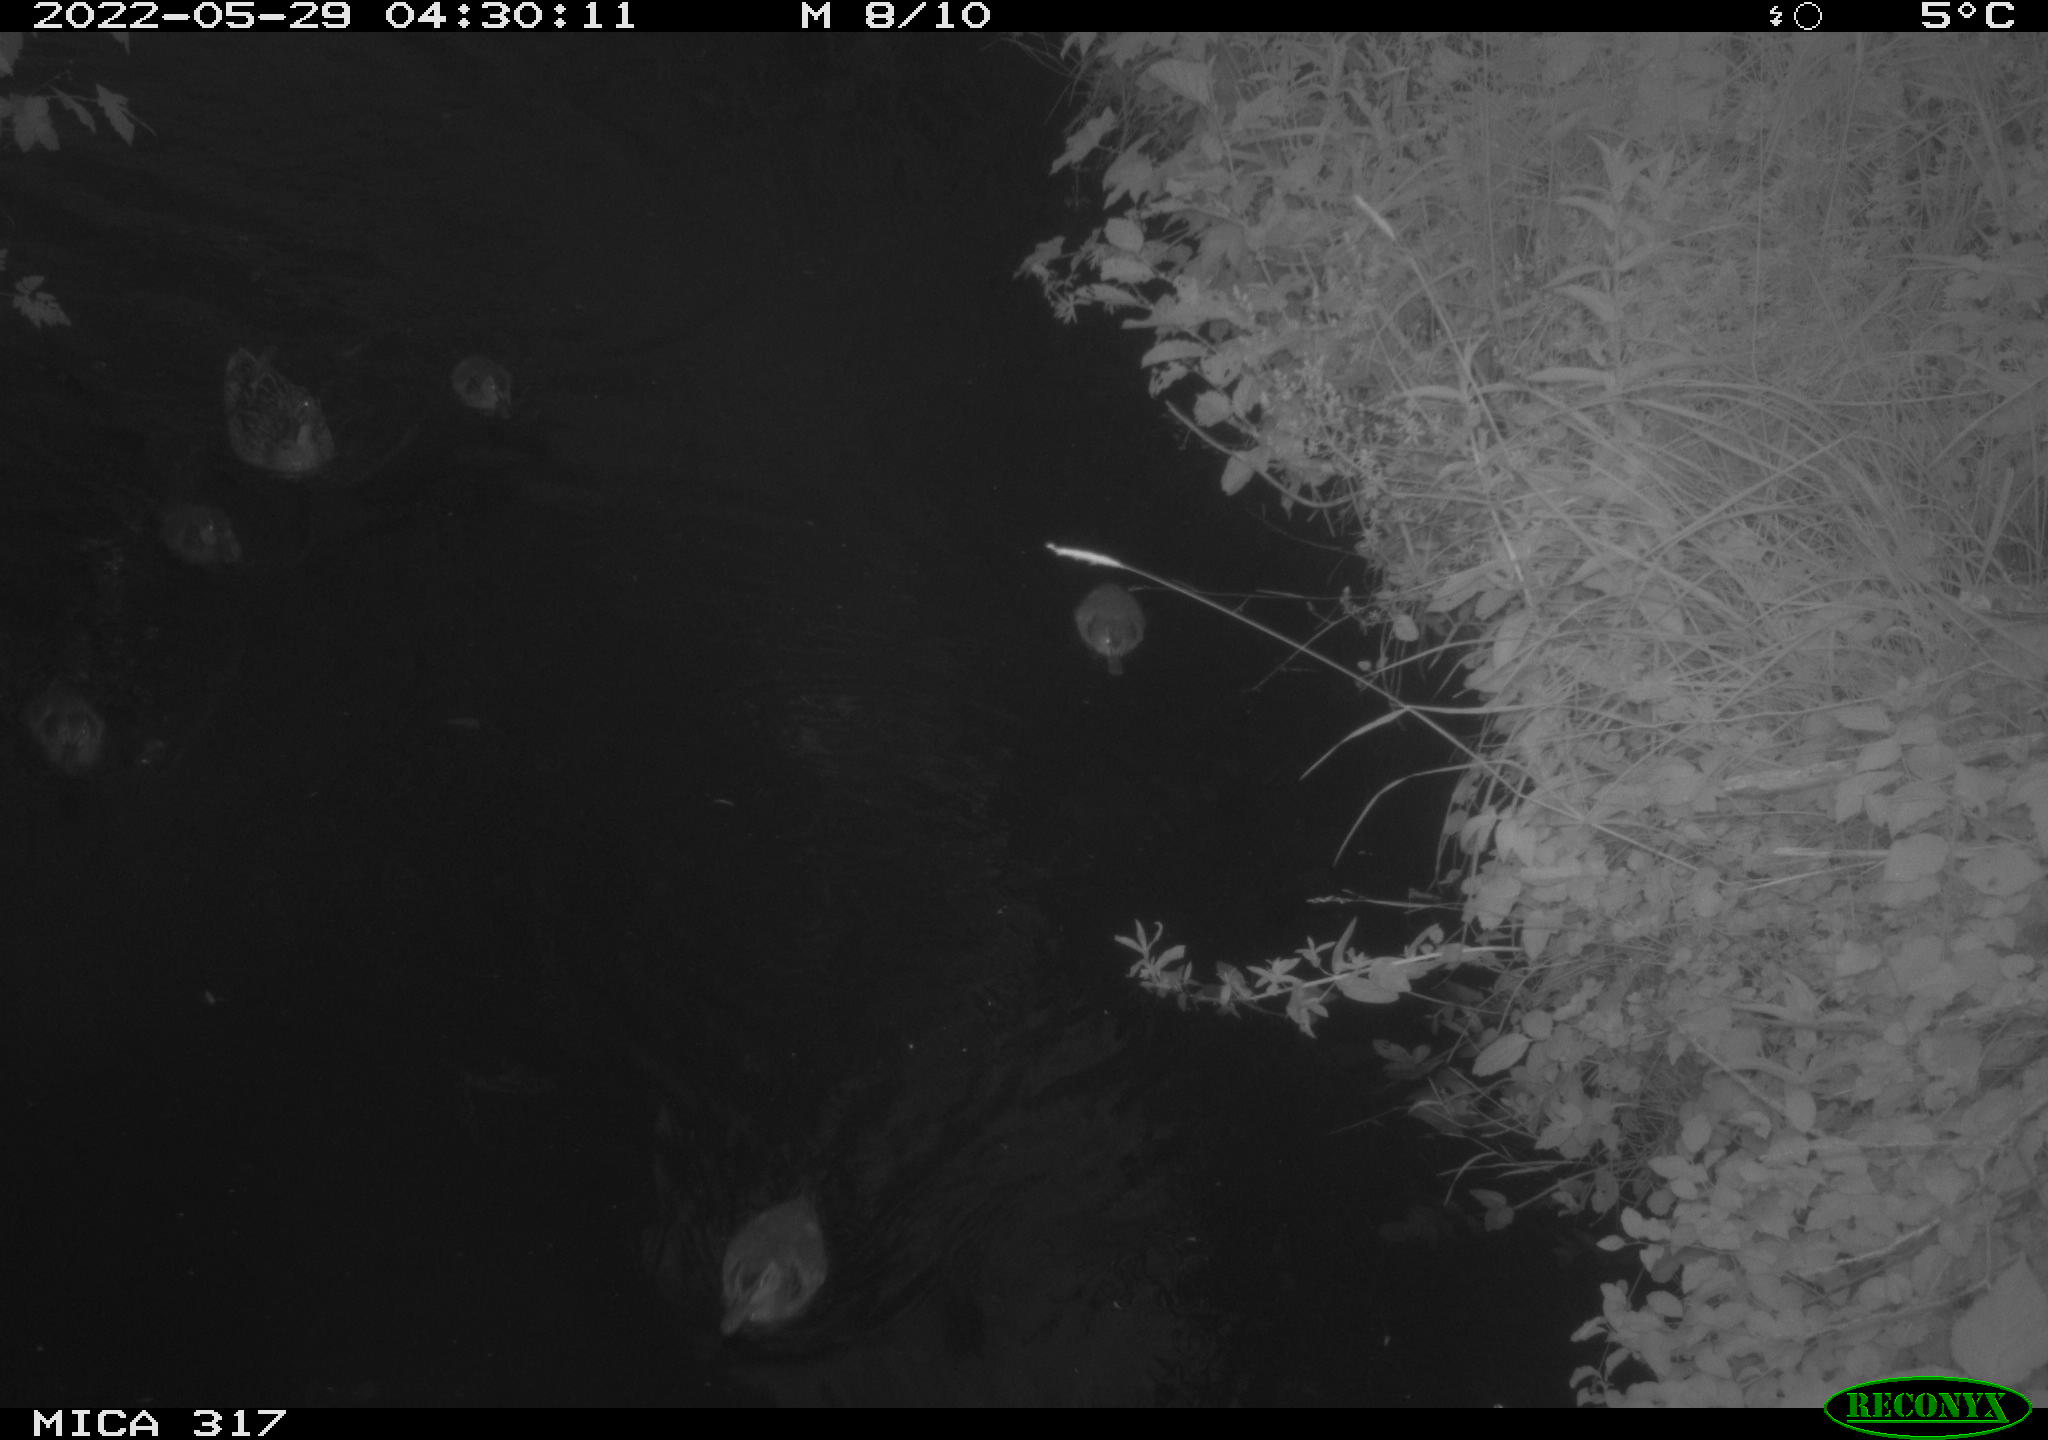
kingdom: Animalia
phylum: Chordata
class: Aves
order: Anseriformes
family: Anatidae
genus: Anas
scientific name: Anas platyrhynchos
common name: Mallard
